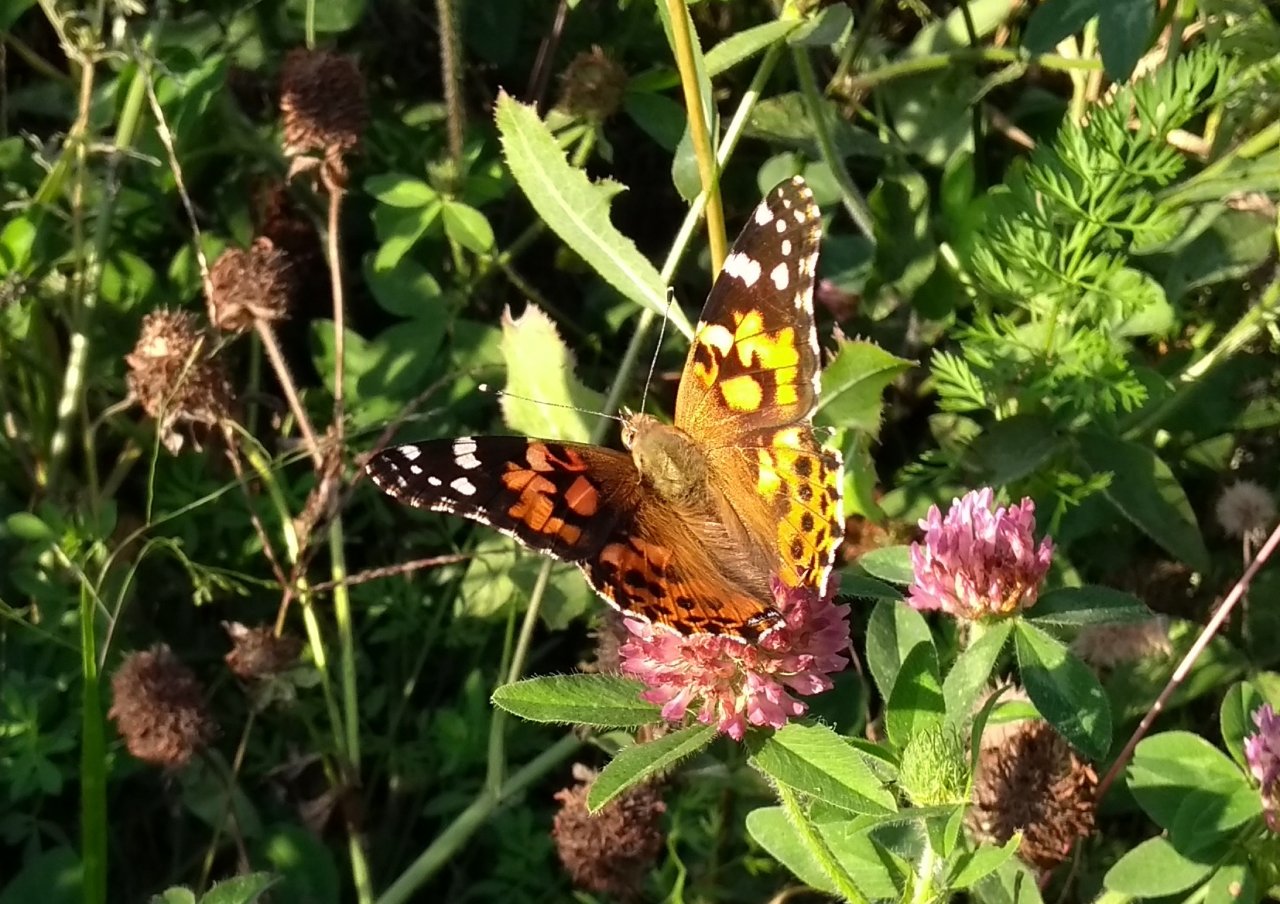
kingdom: Animalia
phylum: Arthropoda
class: Insecta
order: Lepidoptera
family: Nymphalidae
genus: Vanessa
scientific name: Vanessa cardui
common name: Painted Lady
